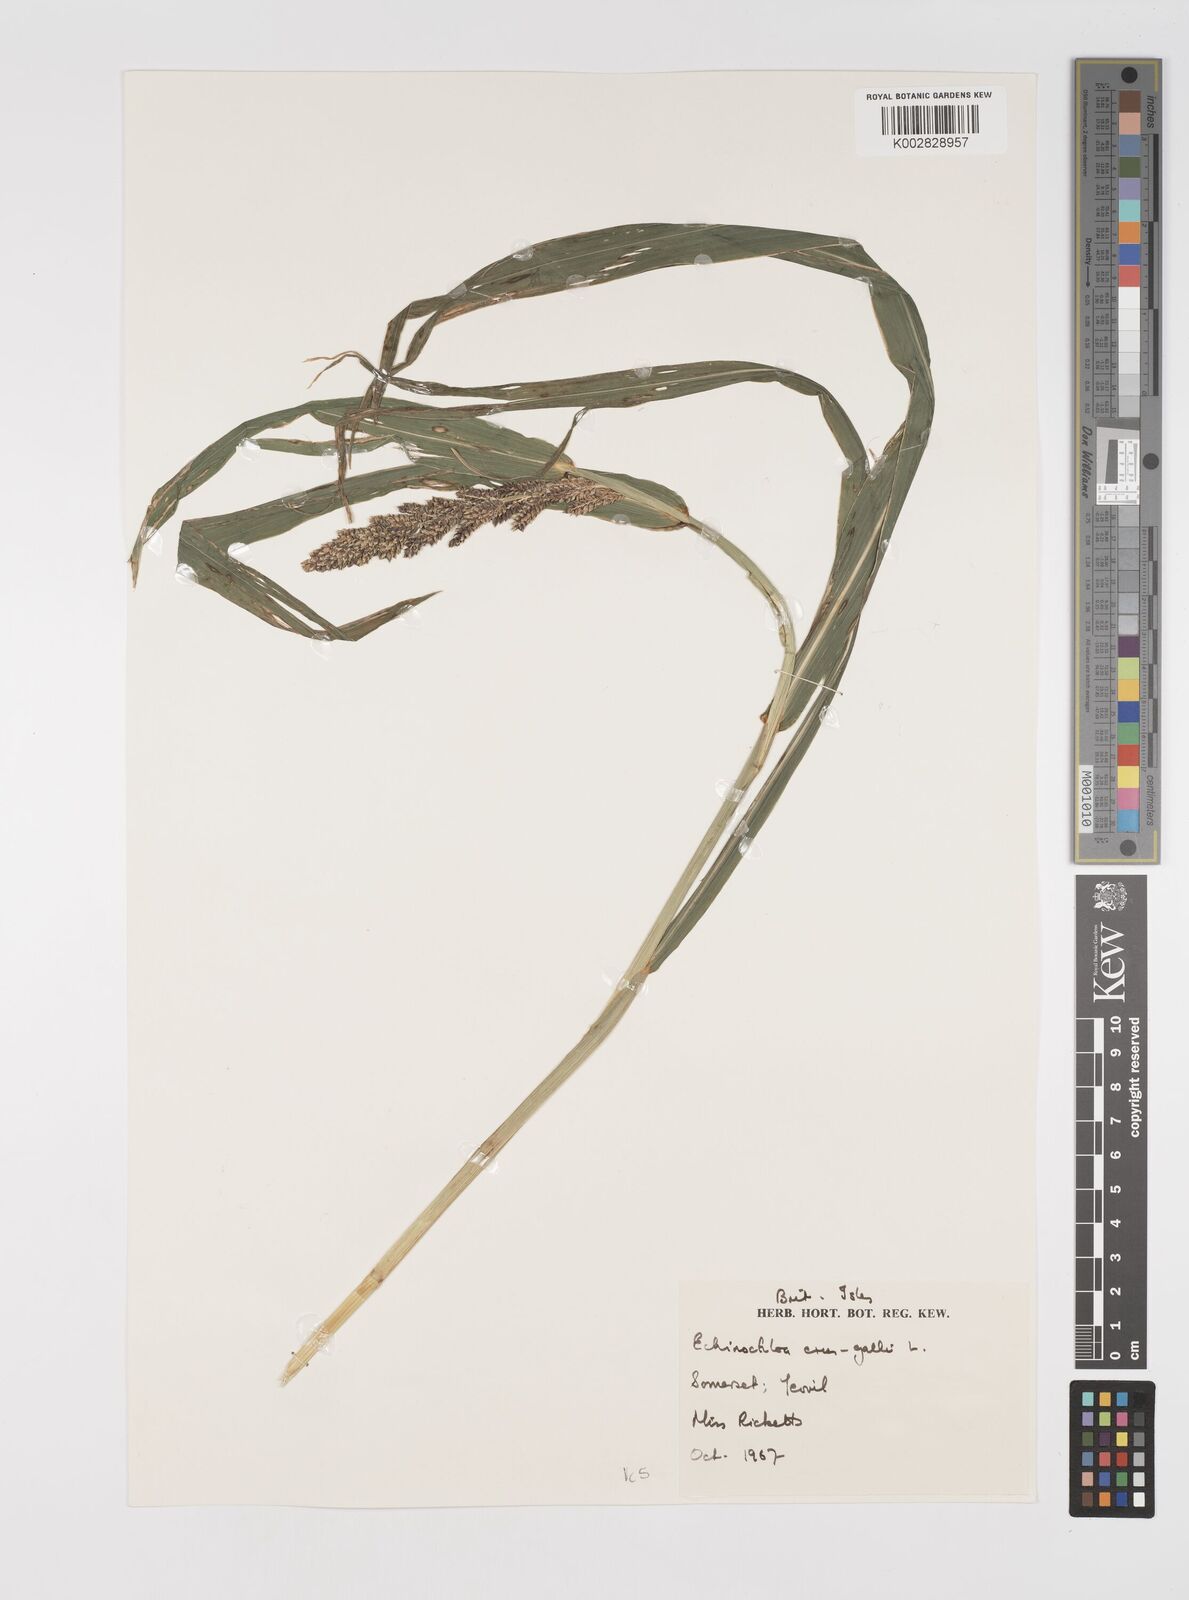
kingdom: Plantae
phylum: Tracheophyta
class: Liliopsida
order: Poales
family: Poaceae
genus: Echinochloa
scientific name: Echinochloa crus-galli
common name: Cockspur
